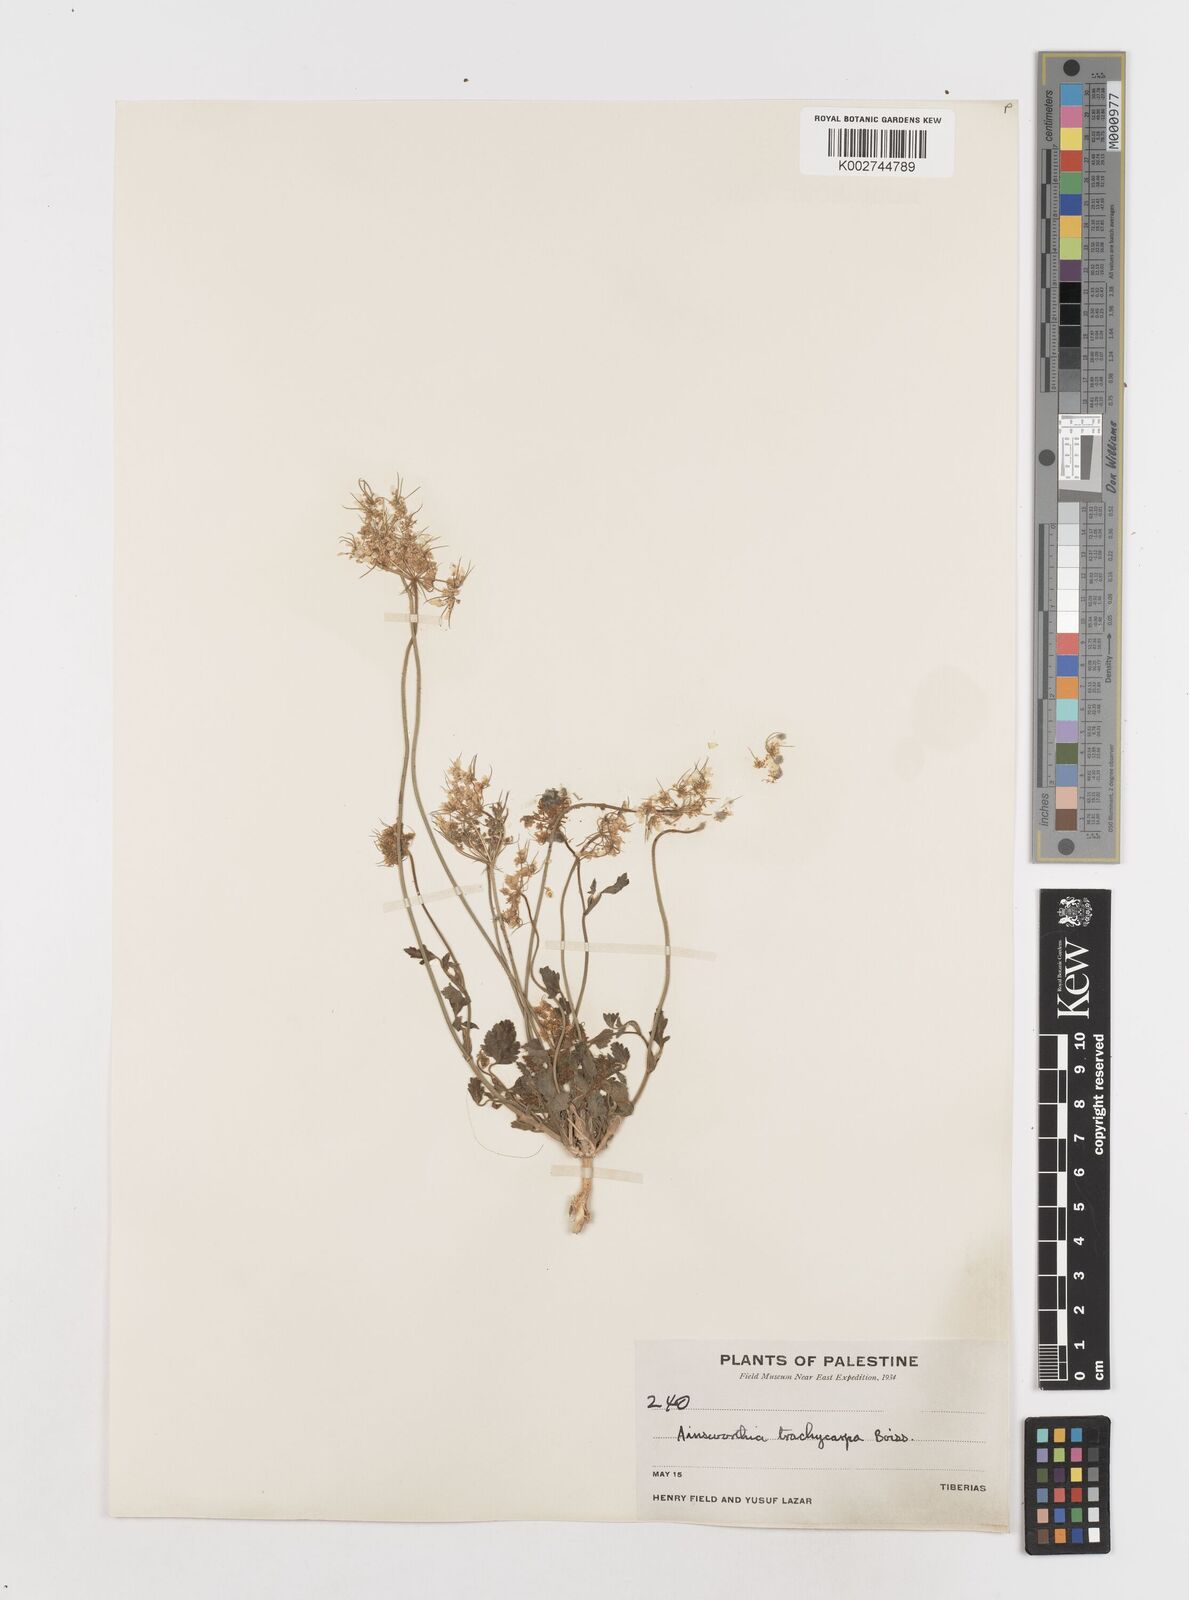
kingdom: Plantae
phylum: Tracheophyta
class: Magnoliopsida
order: Apiales
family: Apiaceae
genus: Ainsworthia
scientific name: Ainsworthia trachycarpa
